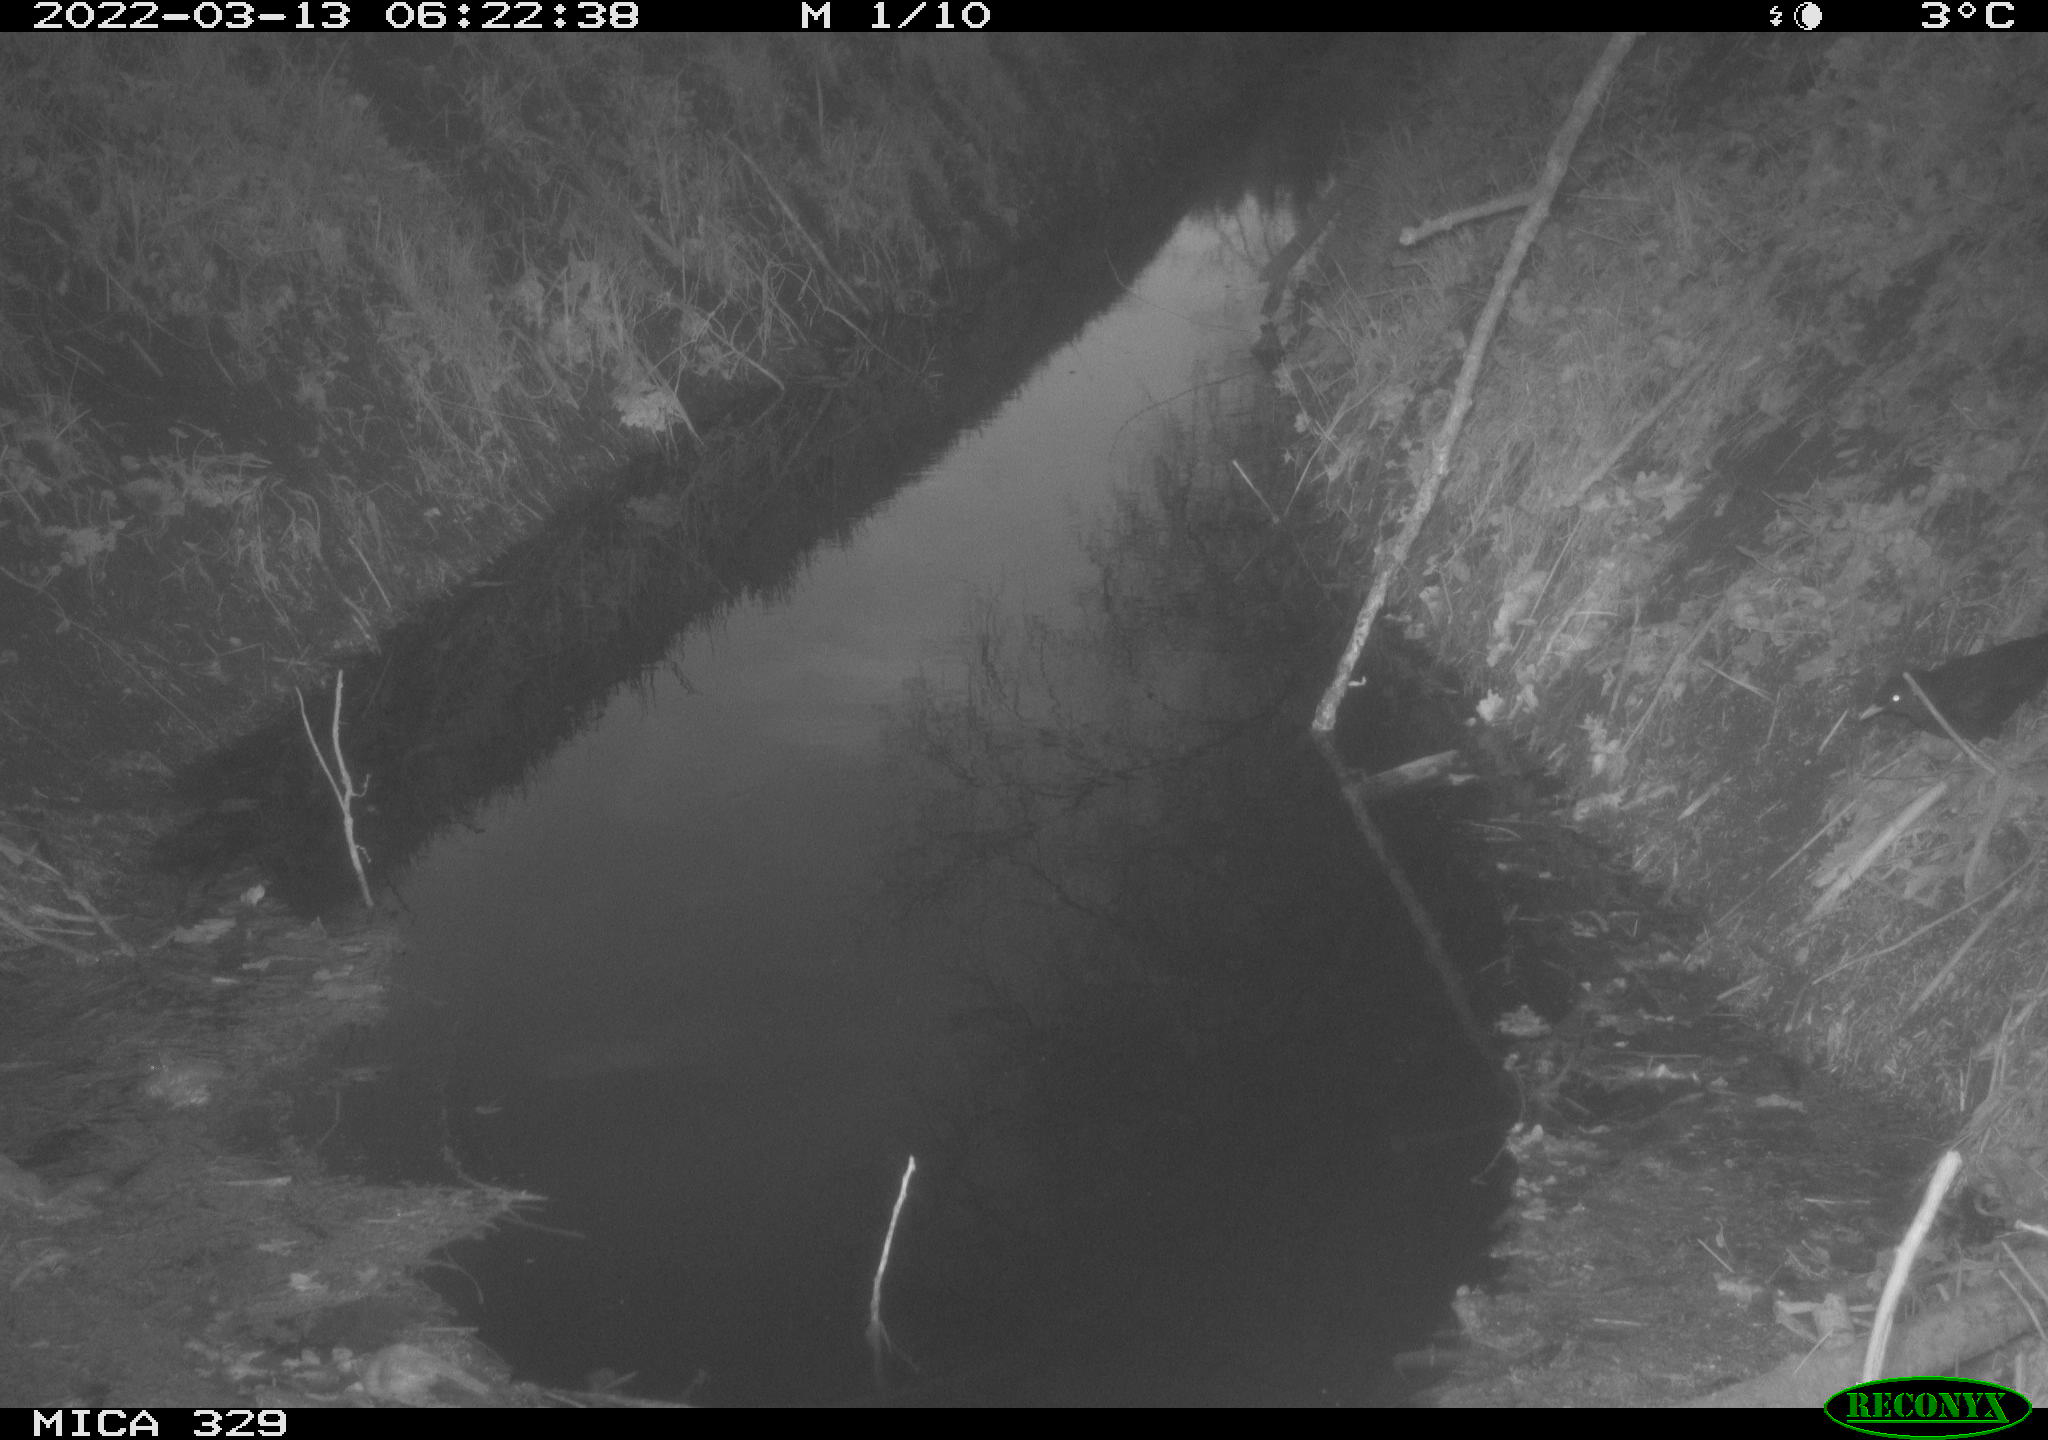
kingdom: Animalia
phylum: Chordata
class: Aves
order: Passeriformes
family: Turdidae
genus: Turdus
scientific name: Turdus merula
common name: Common blackbird
